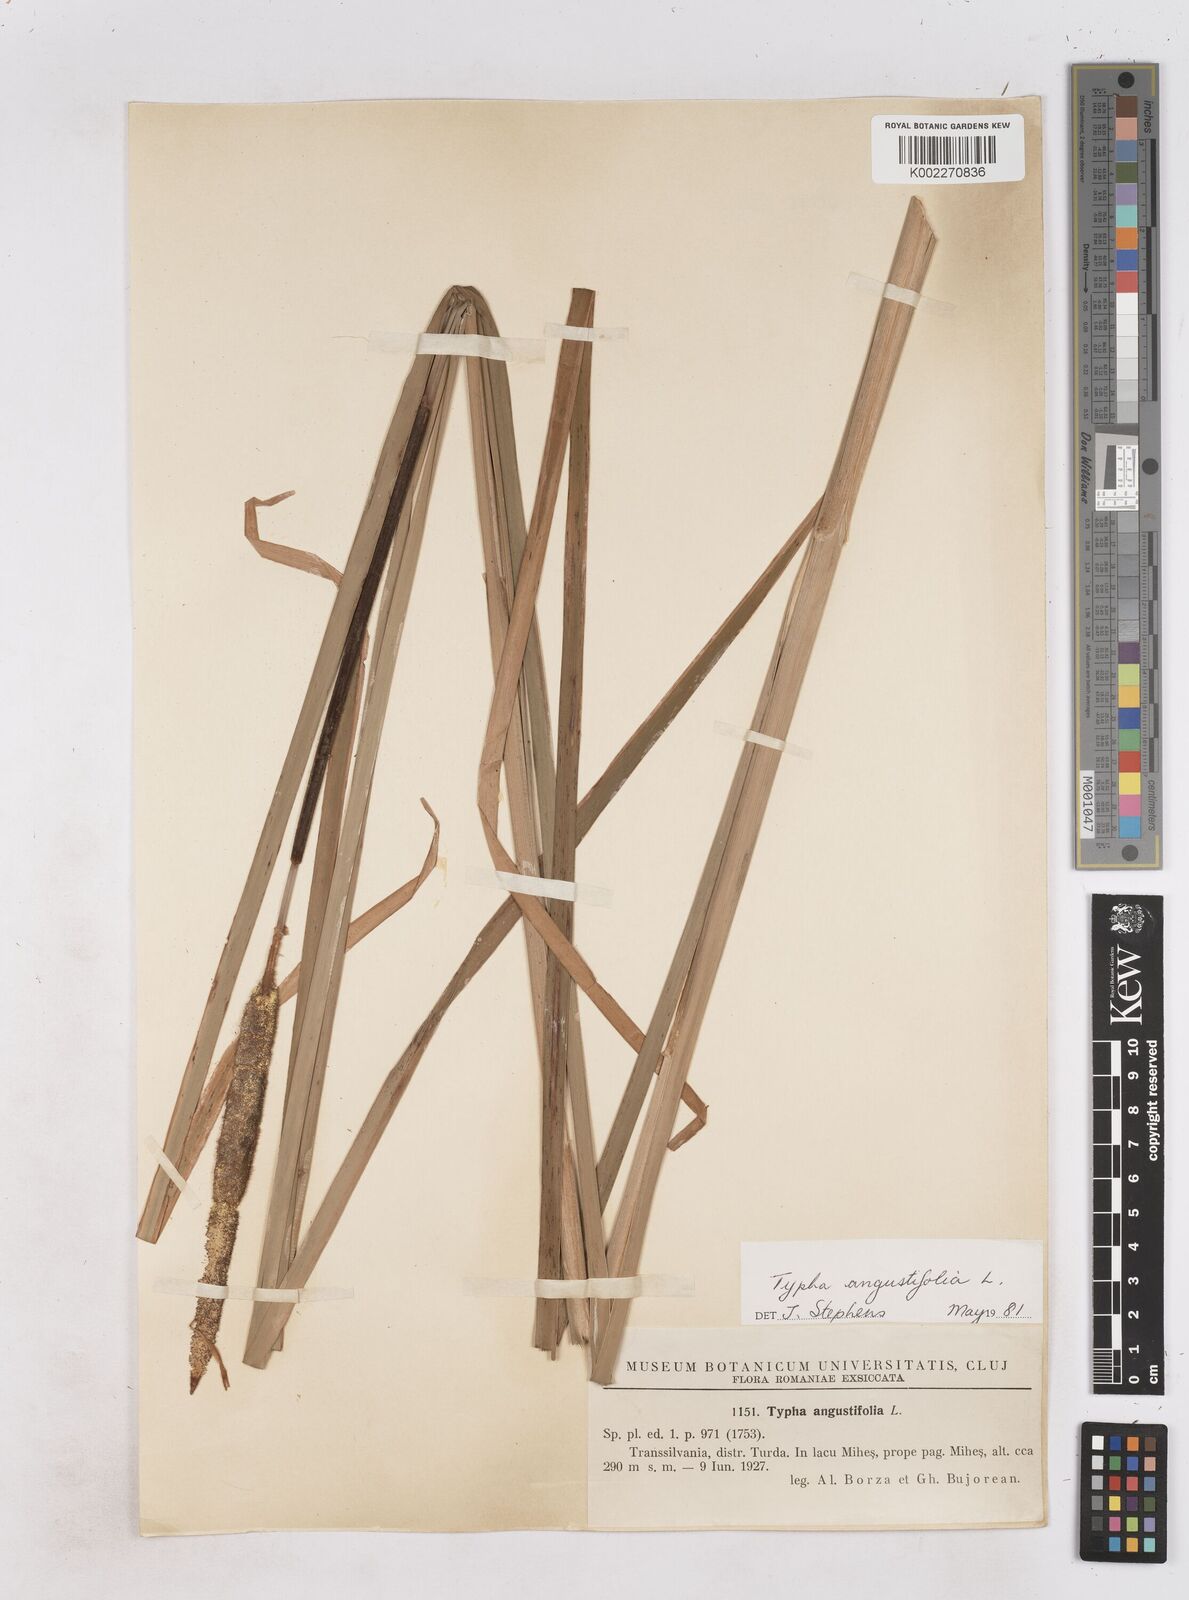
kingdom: Plantae
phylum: Tracheophyta
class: Liliopsida
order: Poales
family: Typhaceae
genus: Typha
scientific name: Typha angustifolia
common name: Lesser bulrush
